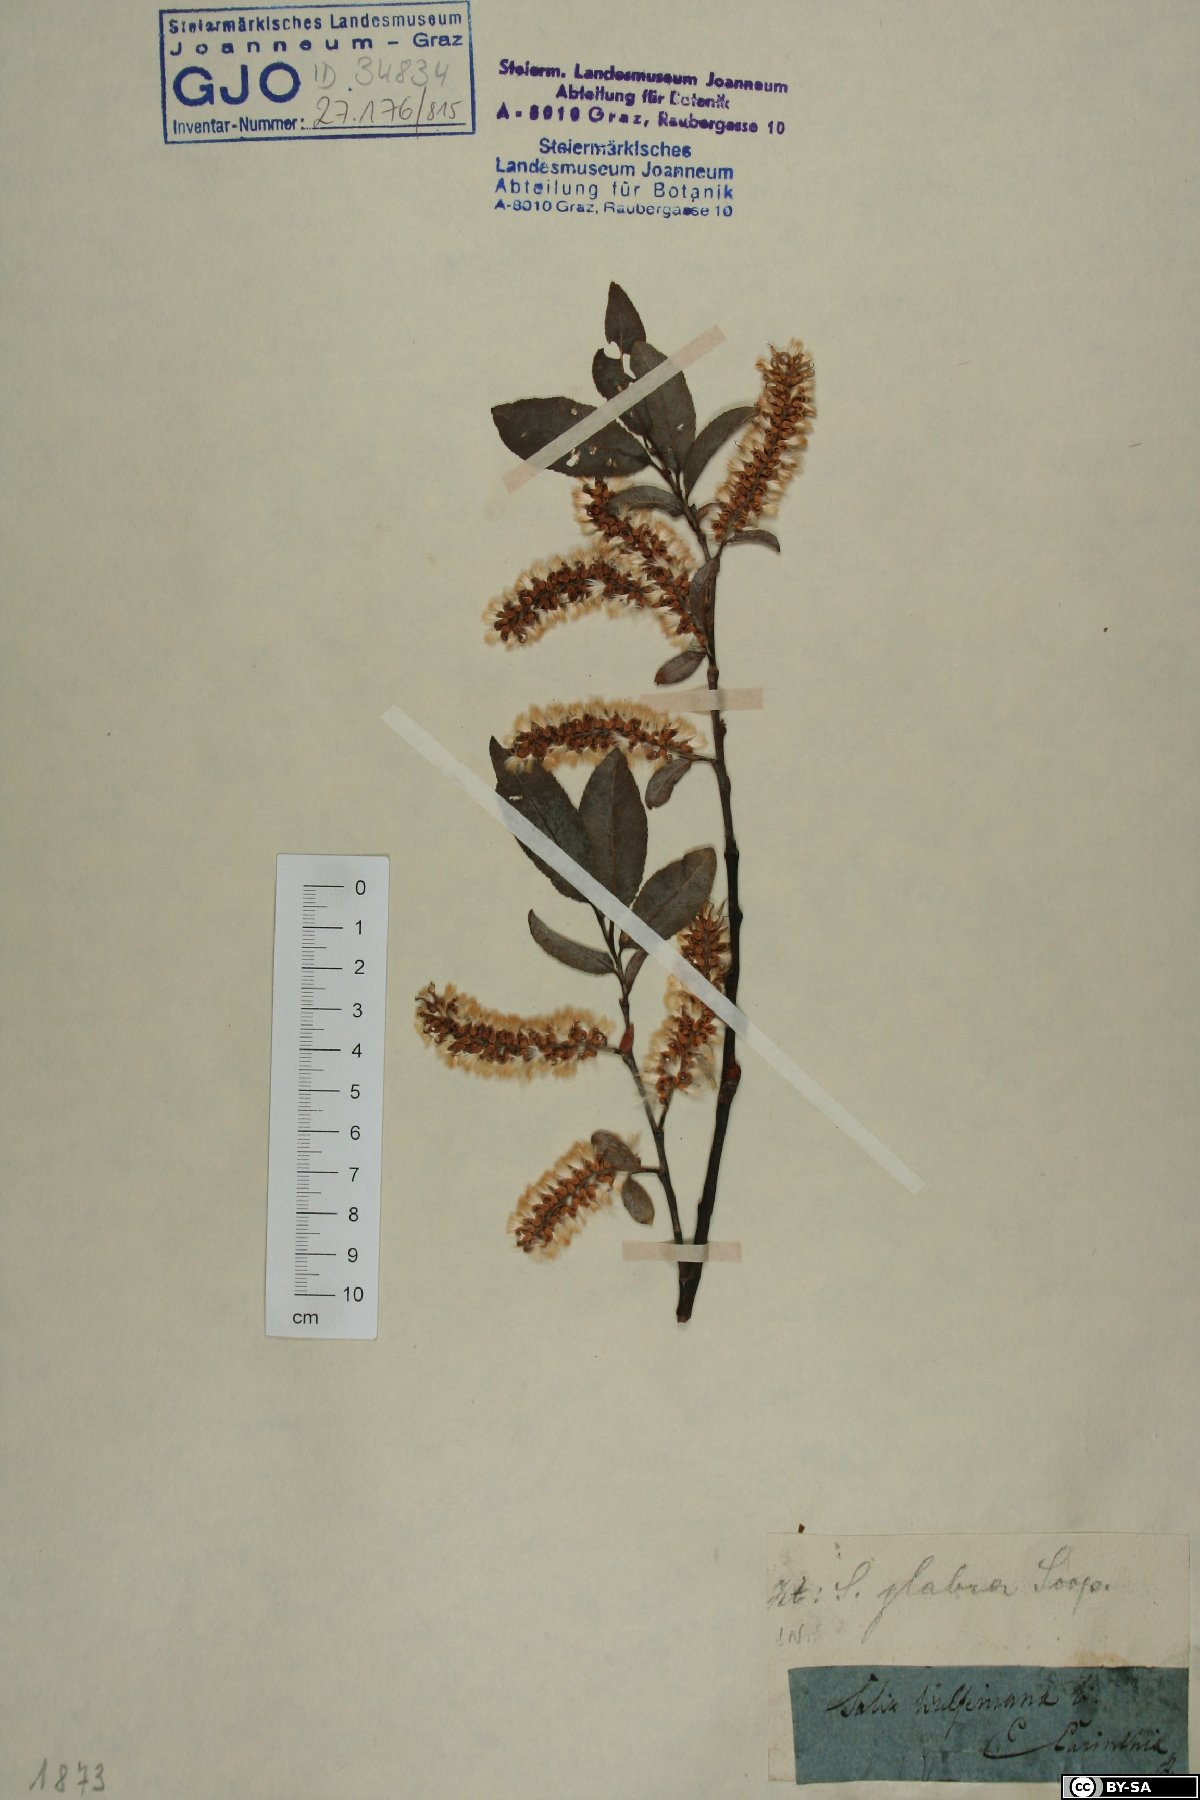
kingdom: Plantae
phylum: Tracheophyta
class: Magnoliopsida
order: Malpighiales
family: Salicaceae
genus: Salix
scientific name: Salix glabra
